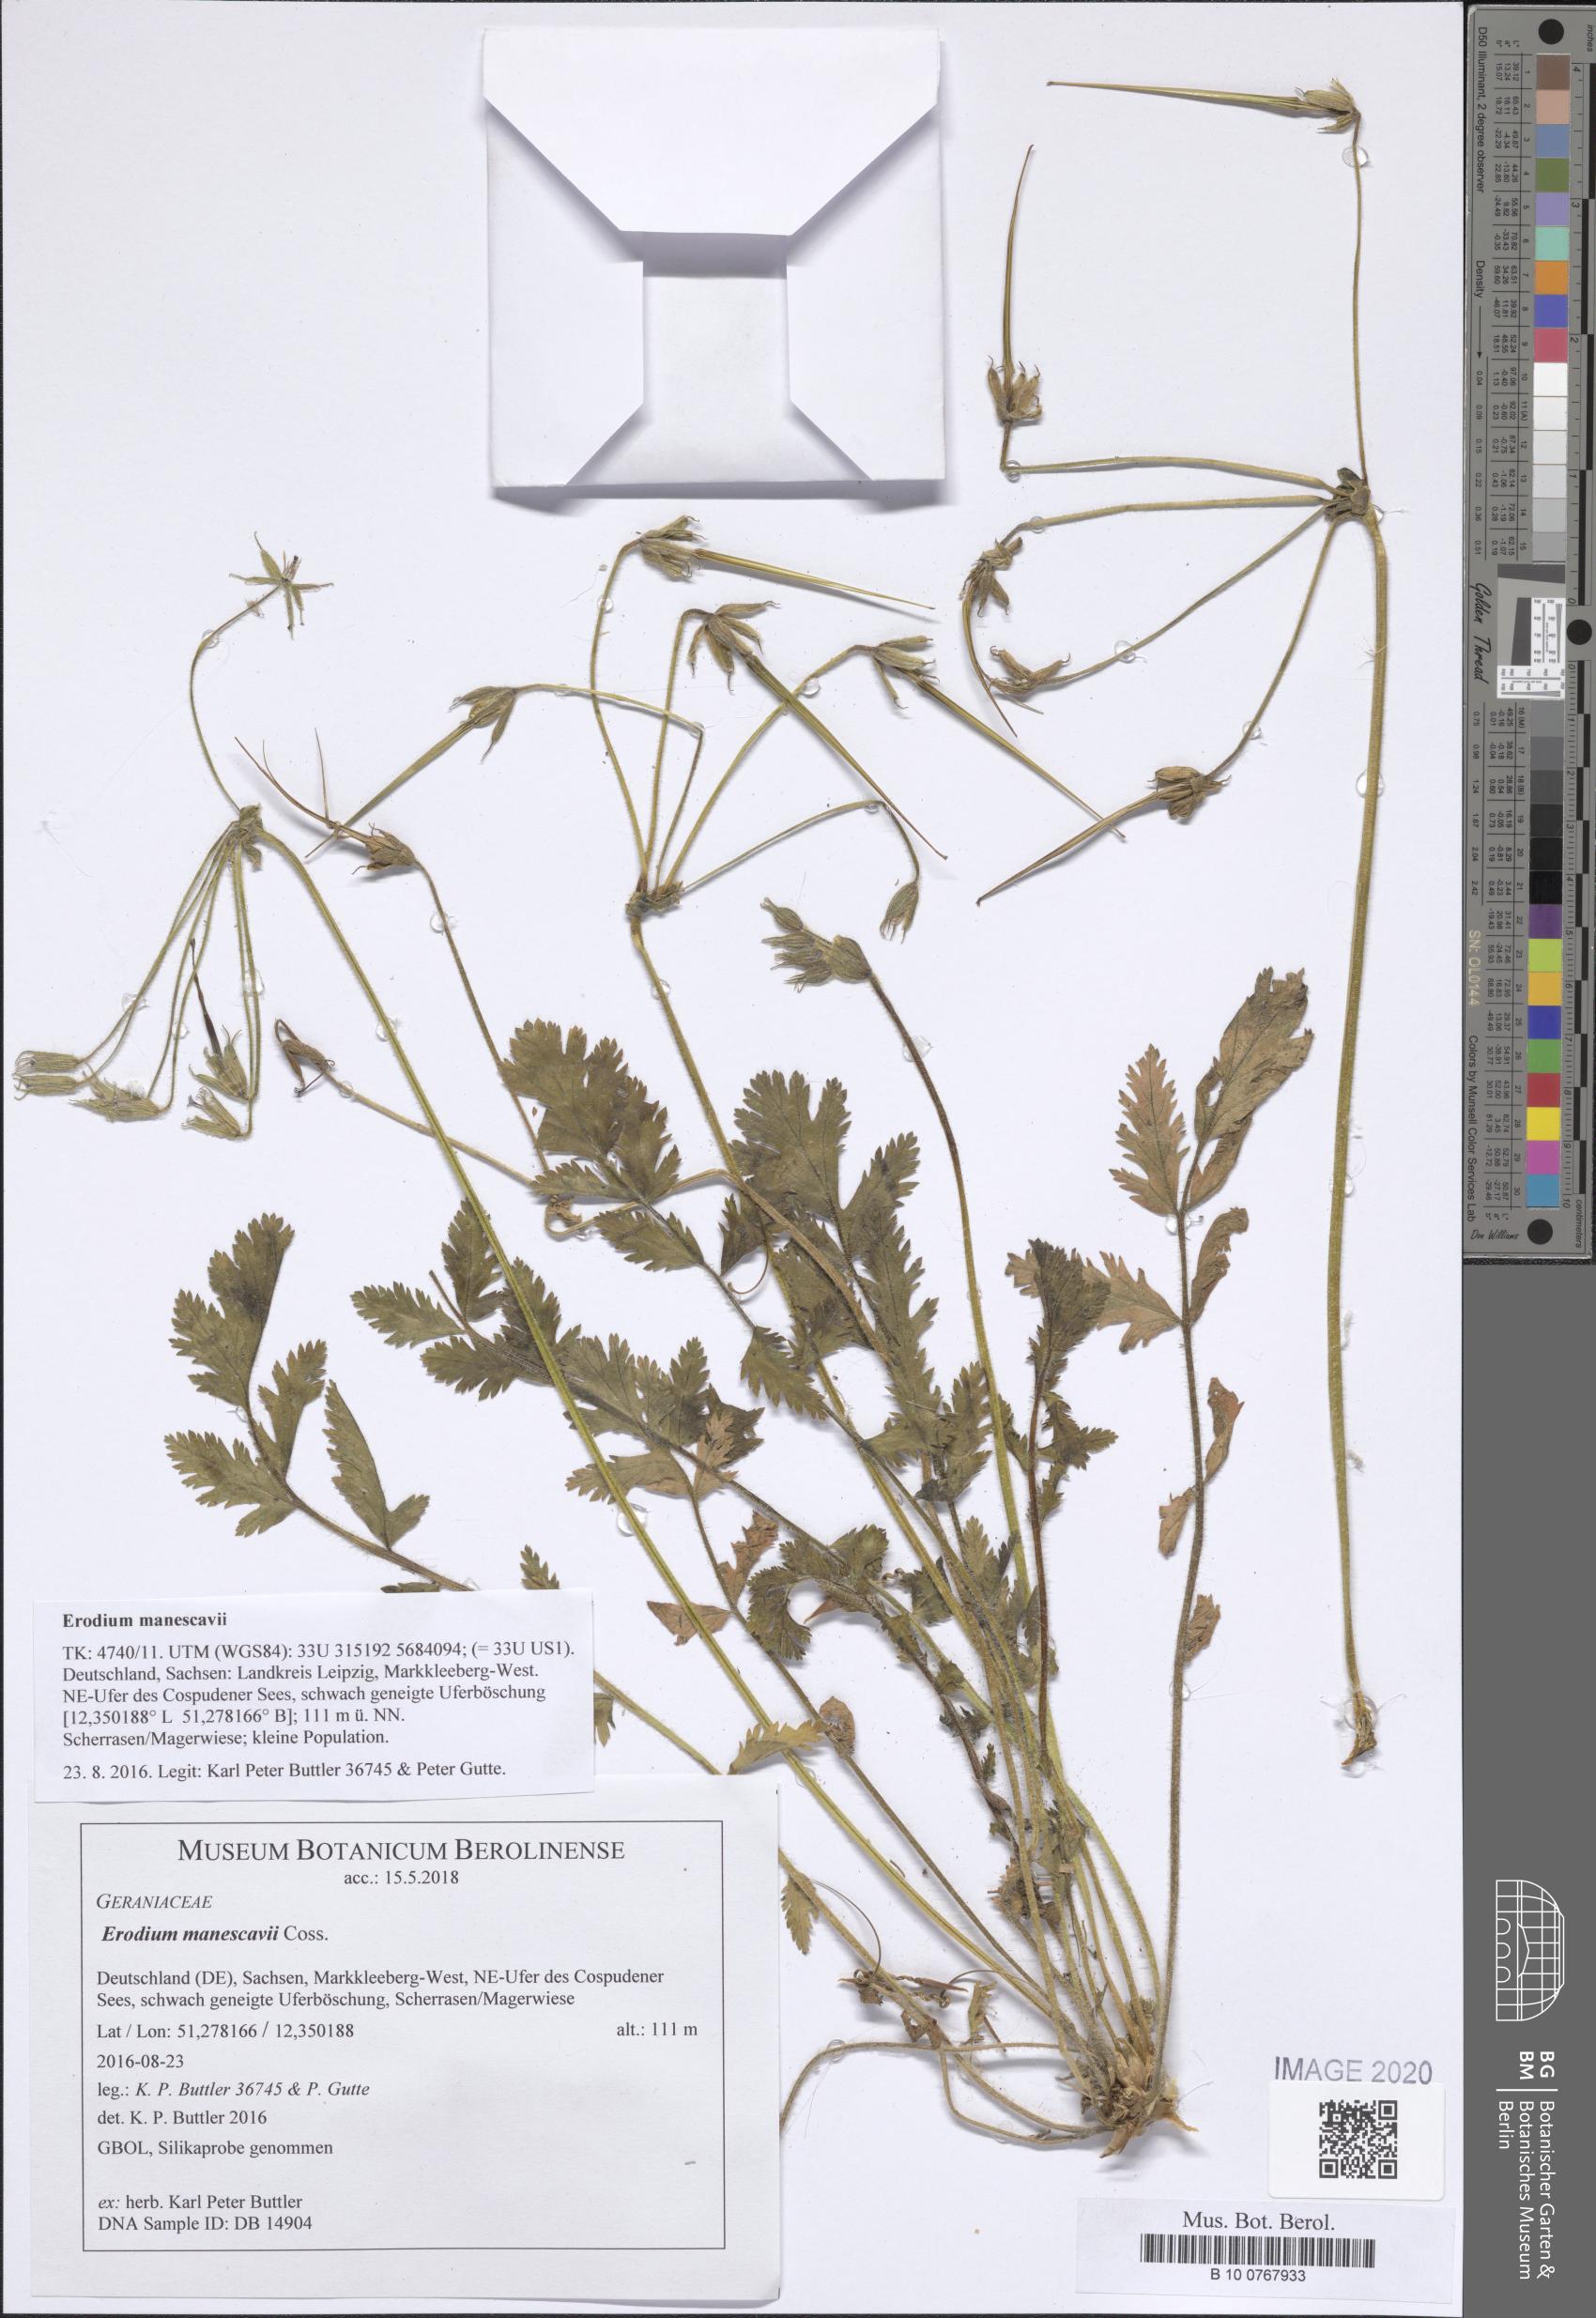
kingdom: Plantae
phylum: Tracheophyta
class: Magnoliopsida
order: Geraniales
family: Geraniaceae
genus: Erodium
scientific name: Erodium manescavi
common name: Garden stork's-bill
